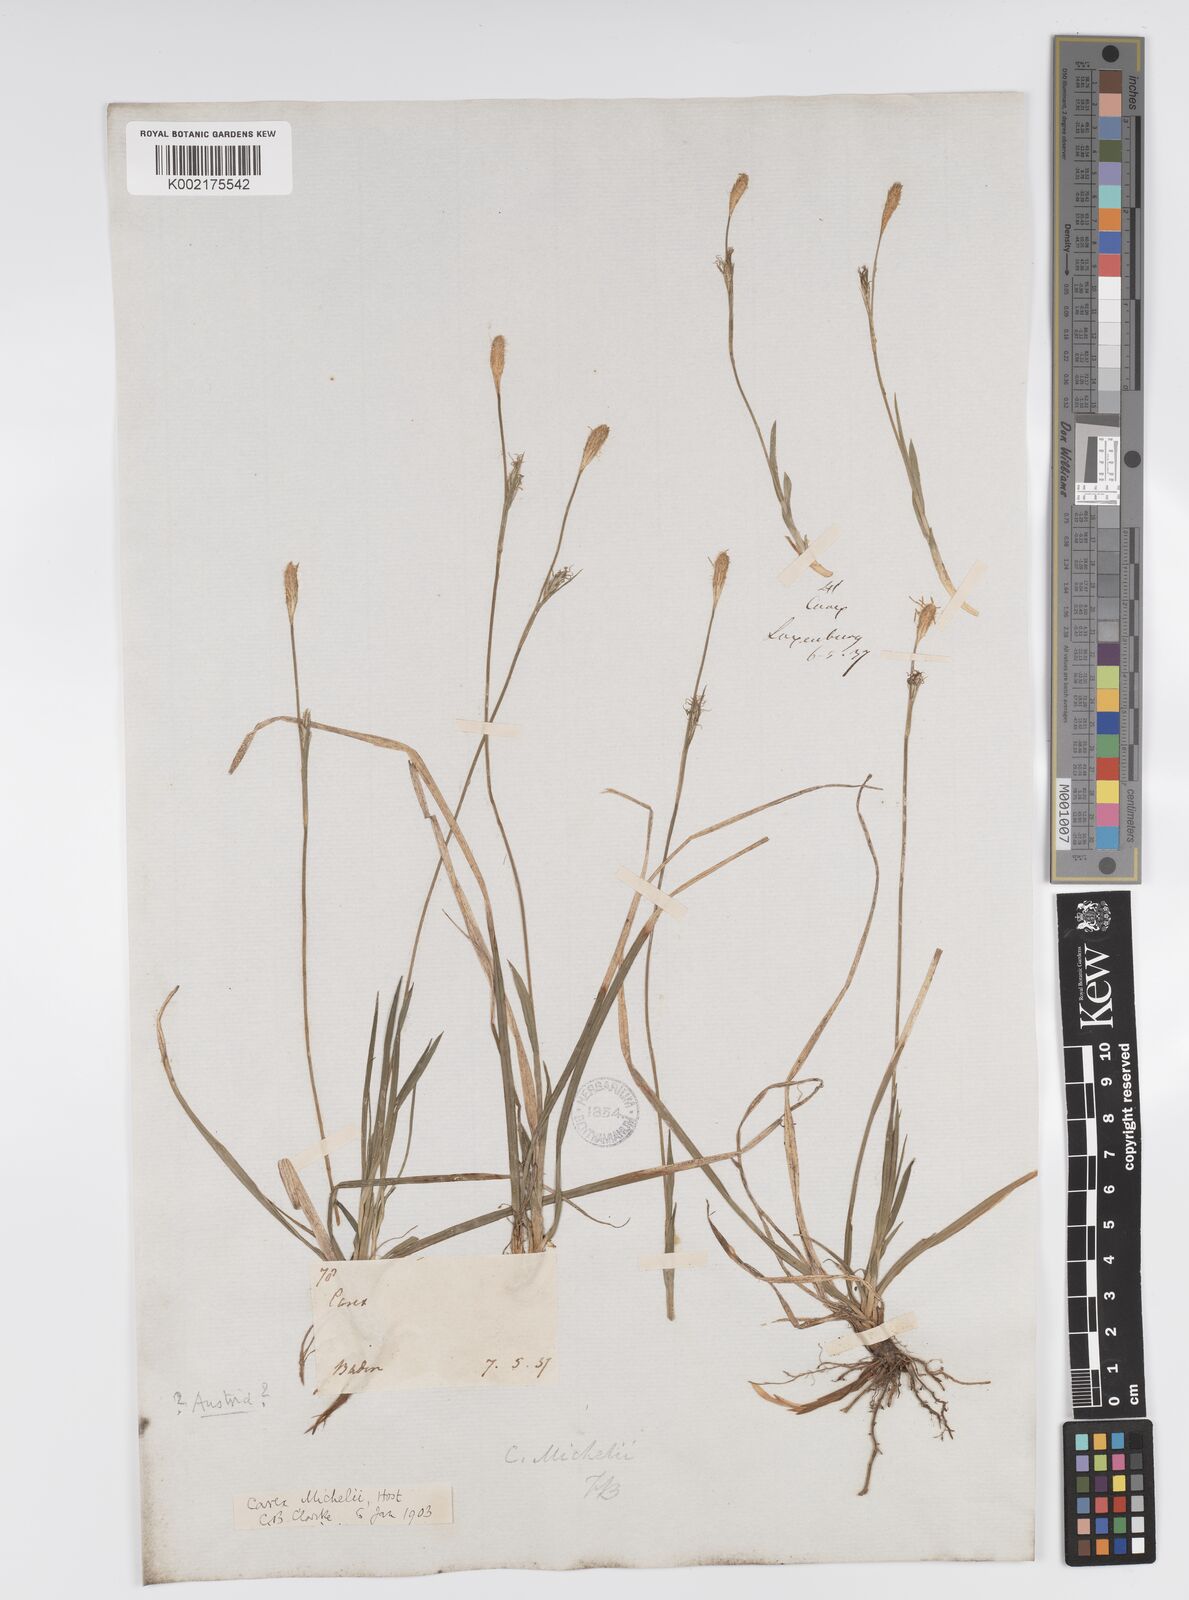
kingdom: Plantae
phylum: Tracheophyta
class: Liliopsida
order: Poales
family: Cyperaceae
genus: Carex
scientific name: Carex michelii
